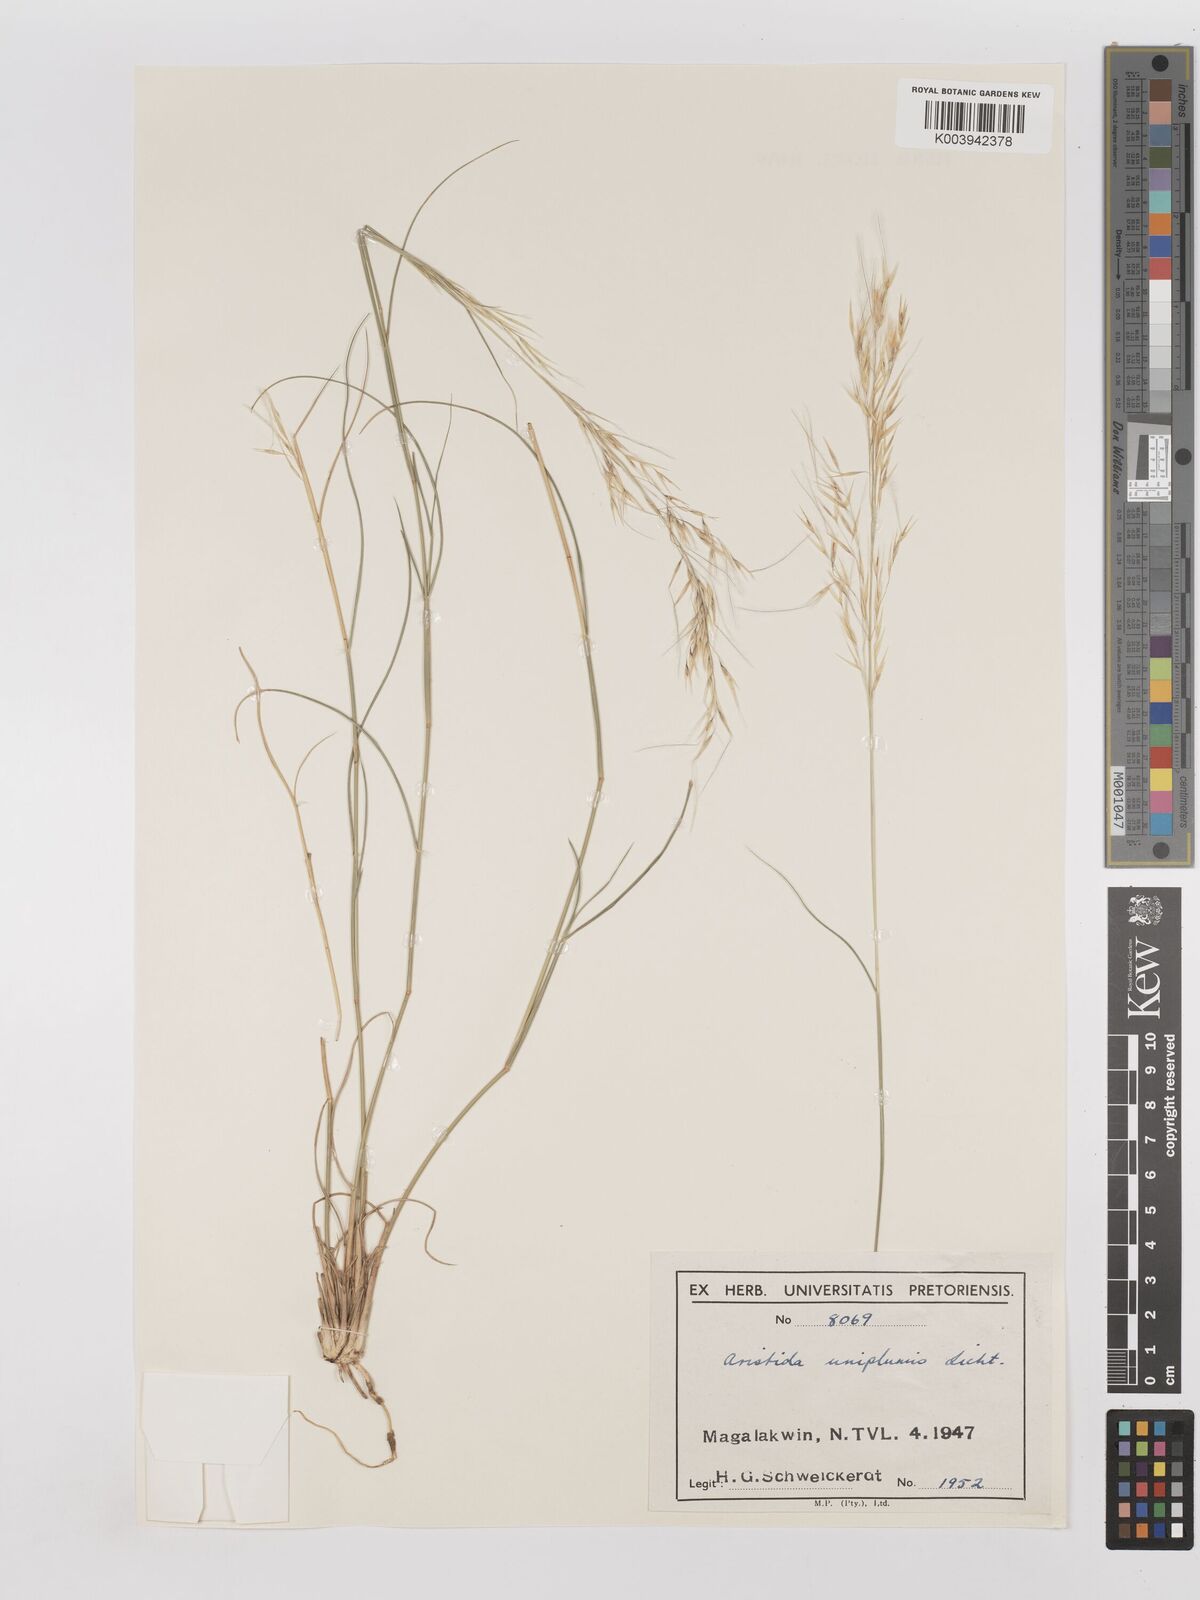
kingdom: Plantae
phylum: Tracheophyta
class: Liliopsida
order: Poales
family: Poaceae
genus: Stipagrostis
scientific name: Stipagrostis uniplumis
